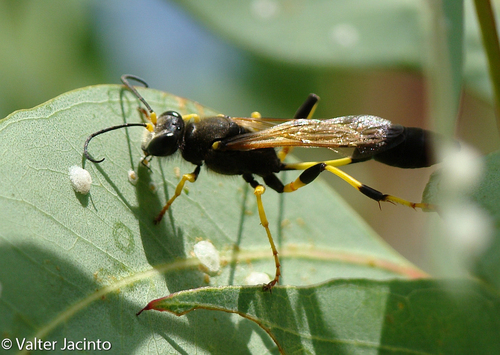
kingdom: Animalia
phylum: Arthropoda
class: Insecta
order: Hymenoptera
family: Sphecidae
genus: Sceliphron
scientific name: Sceliphron destillatorium
